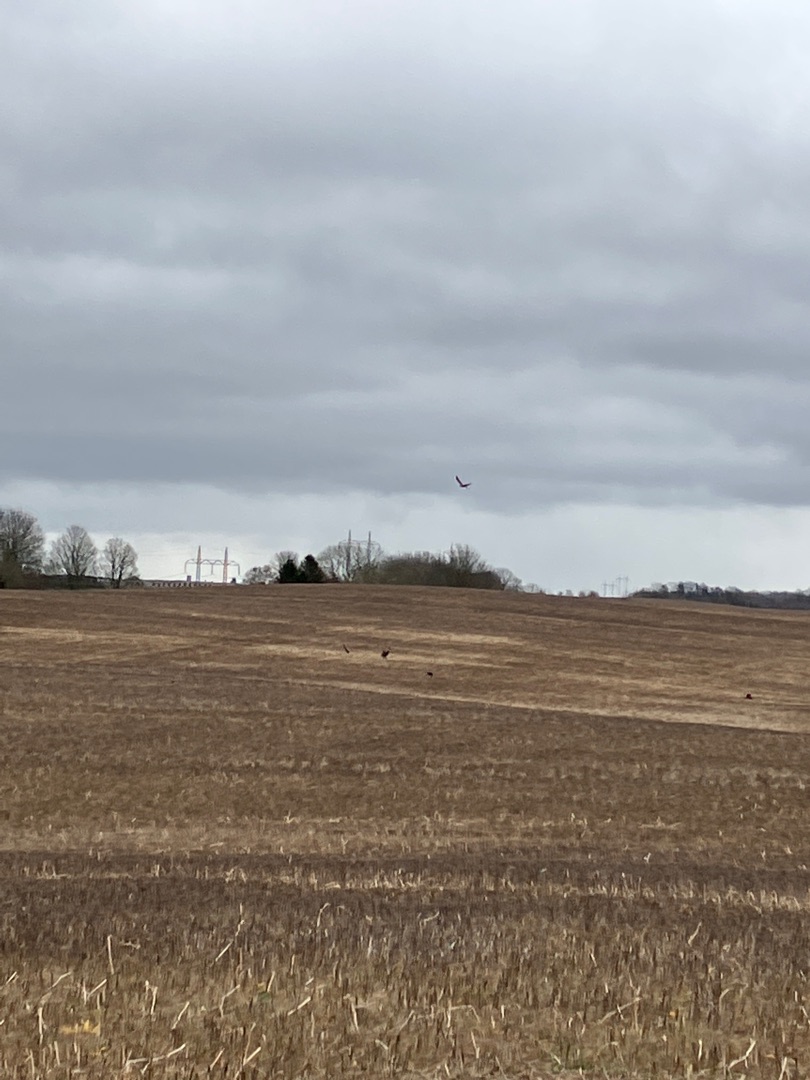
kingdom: Animalia
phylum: Chordata
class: Aves
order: Accipitriformes
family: Accipitridae
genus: Milvus
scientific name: Milvus milvus
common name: Rød glente
